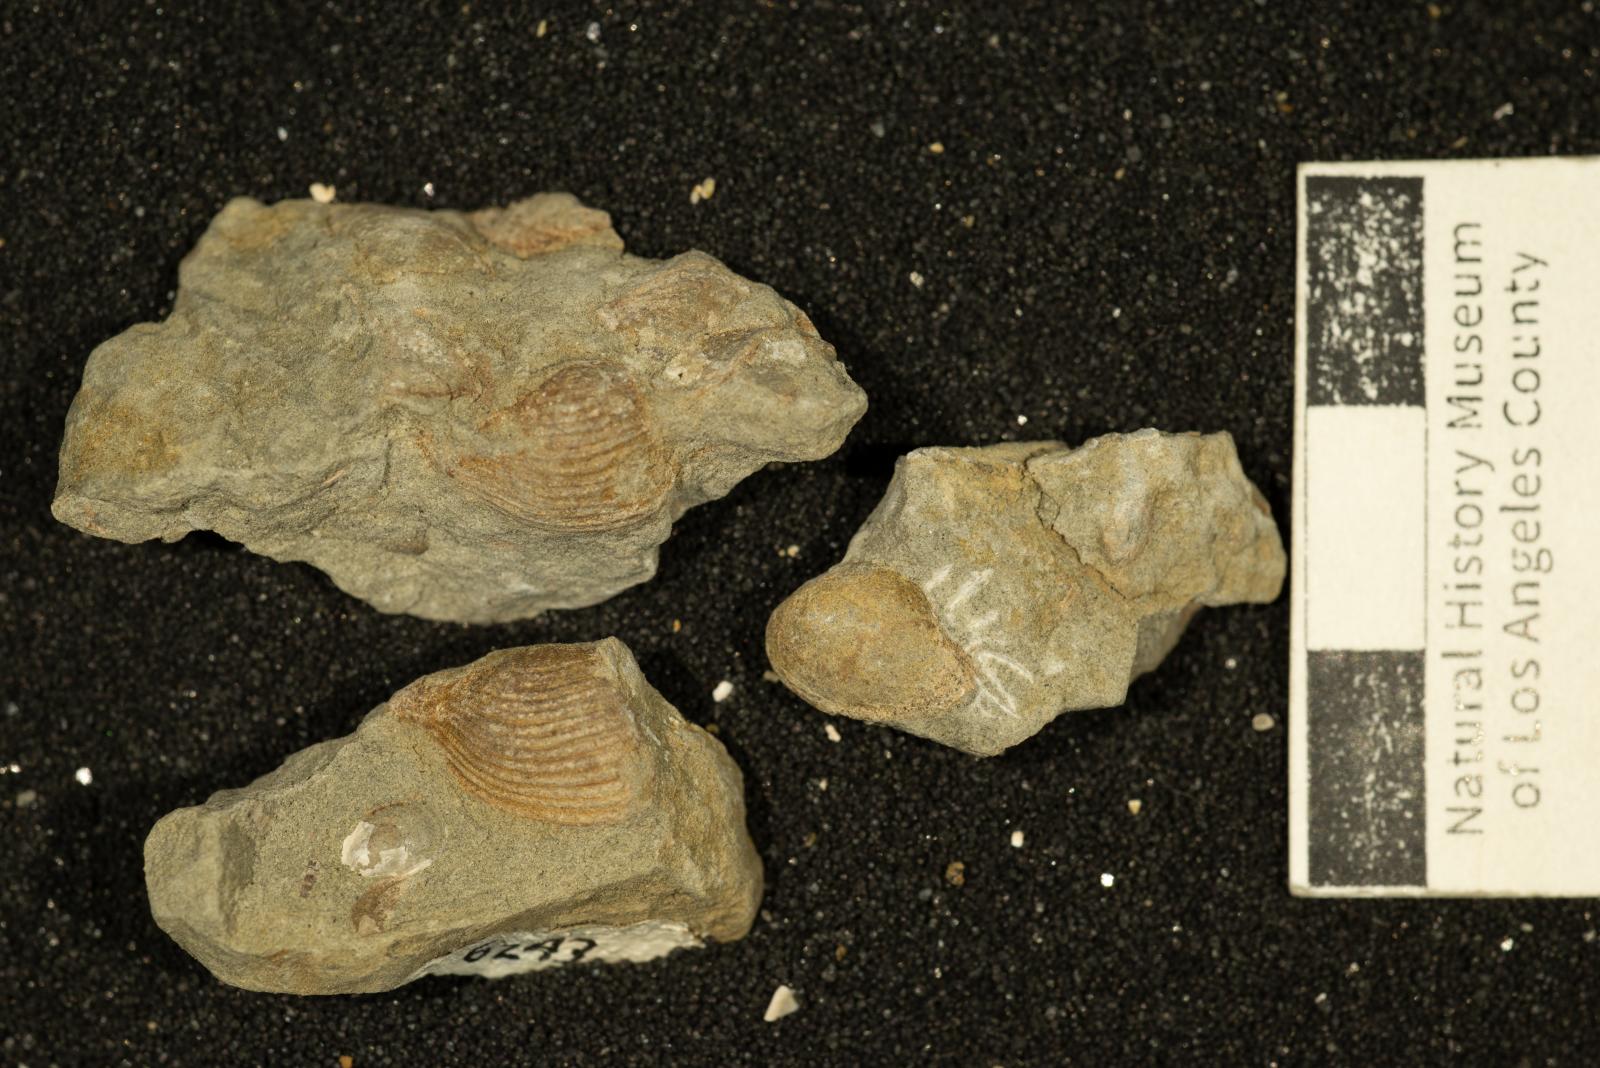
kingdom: Animalia
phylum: Mollusca
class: Bivalvia
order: Myida
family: Corbulidae
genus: Corbula
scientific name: Corbula pozo
